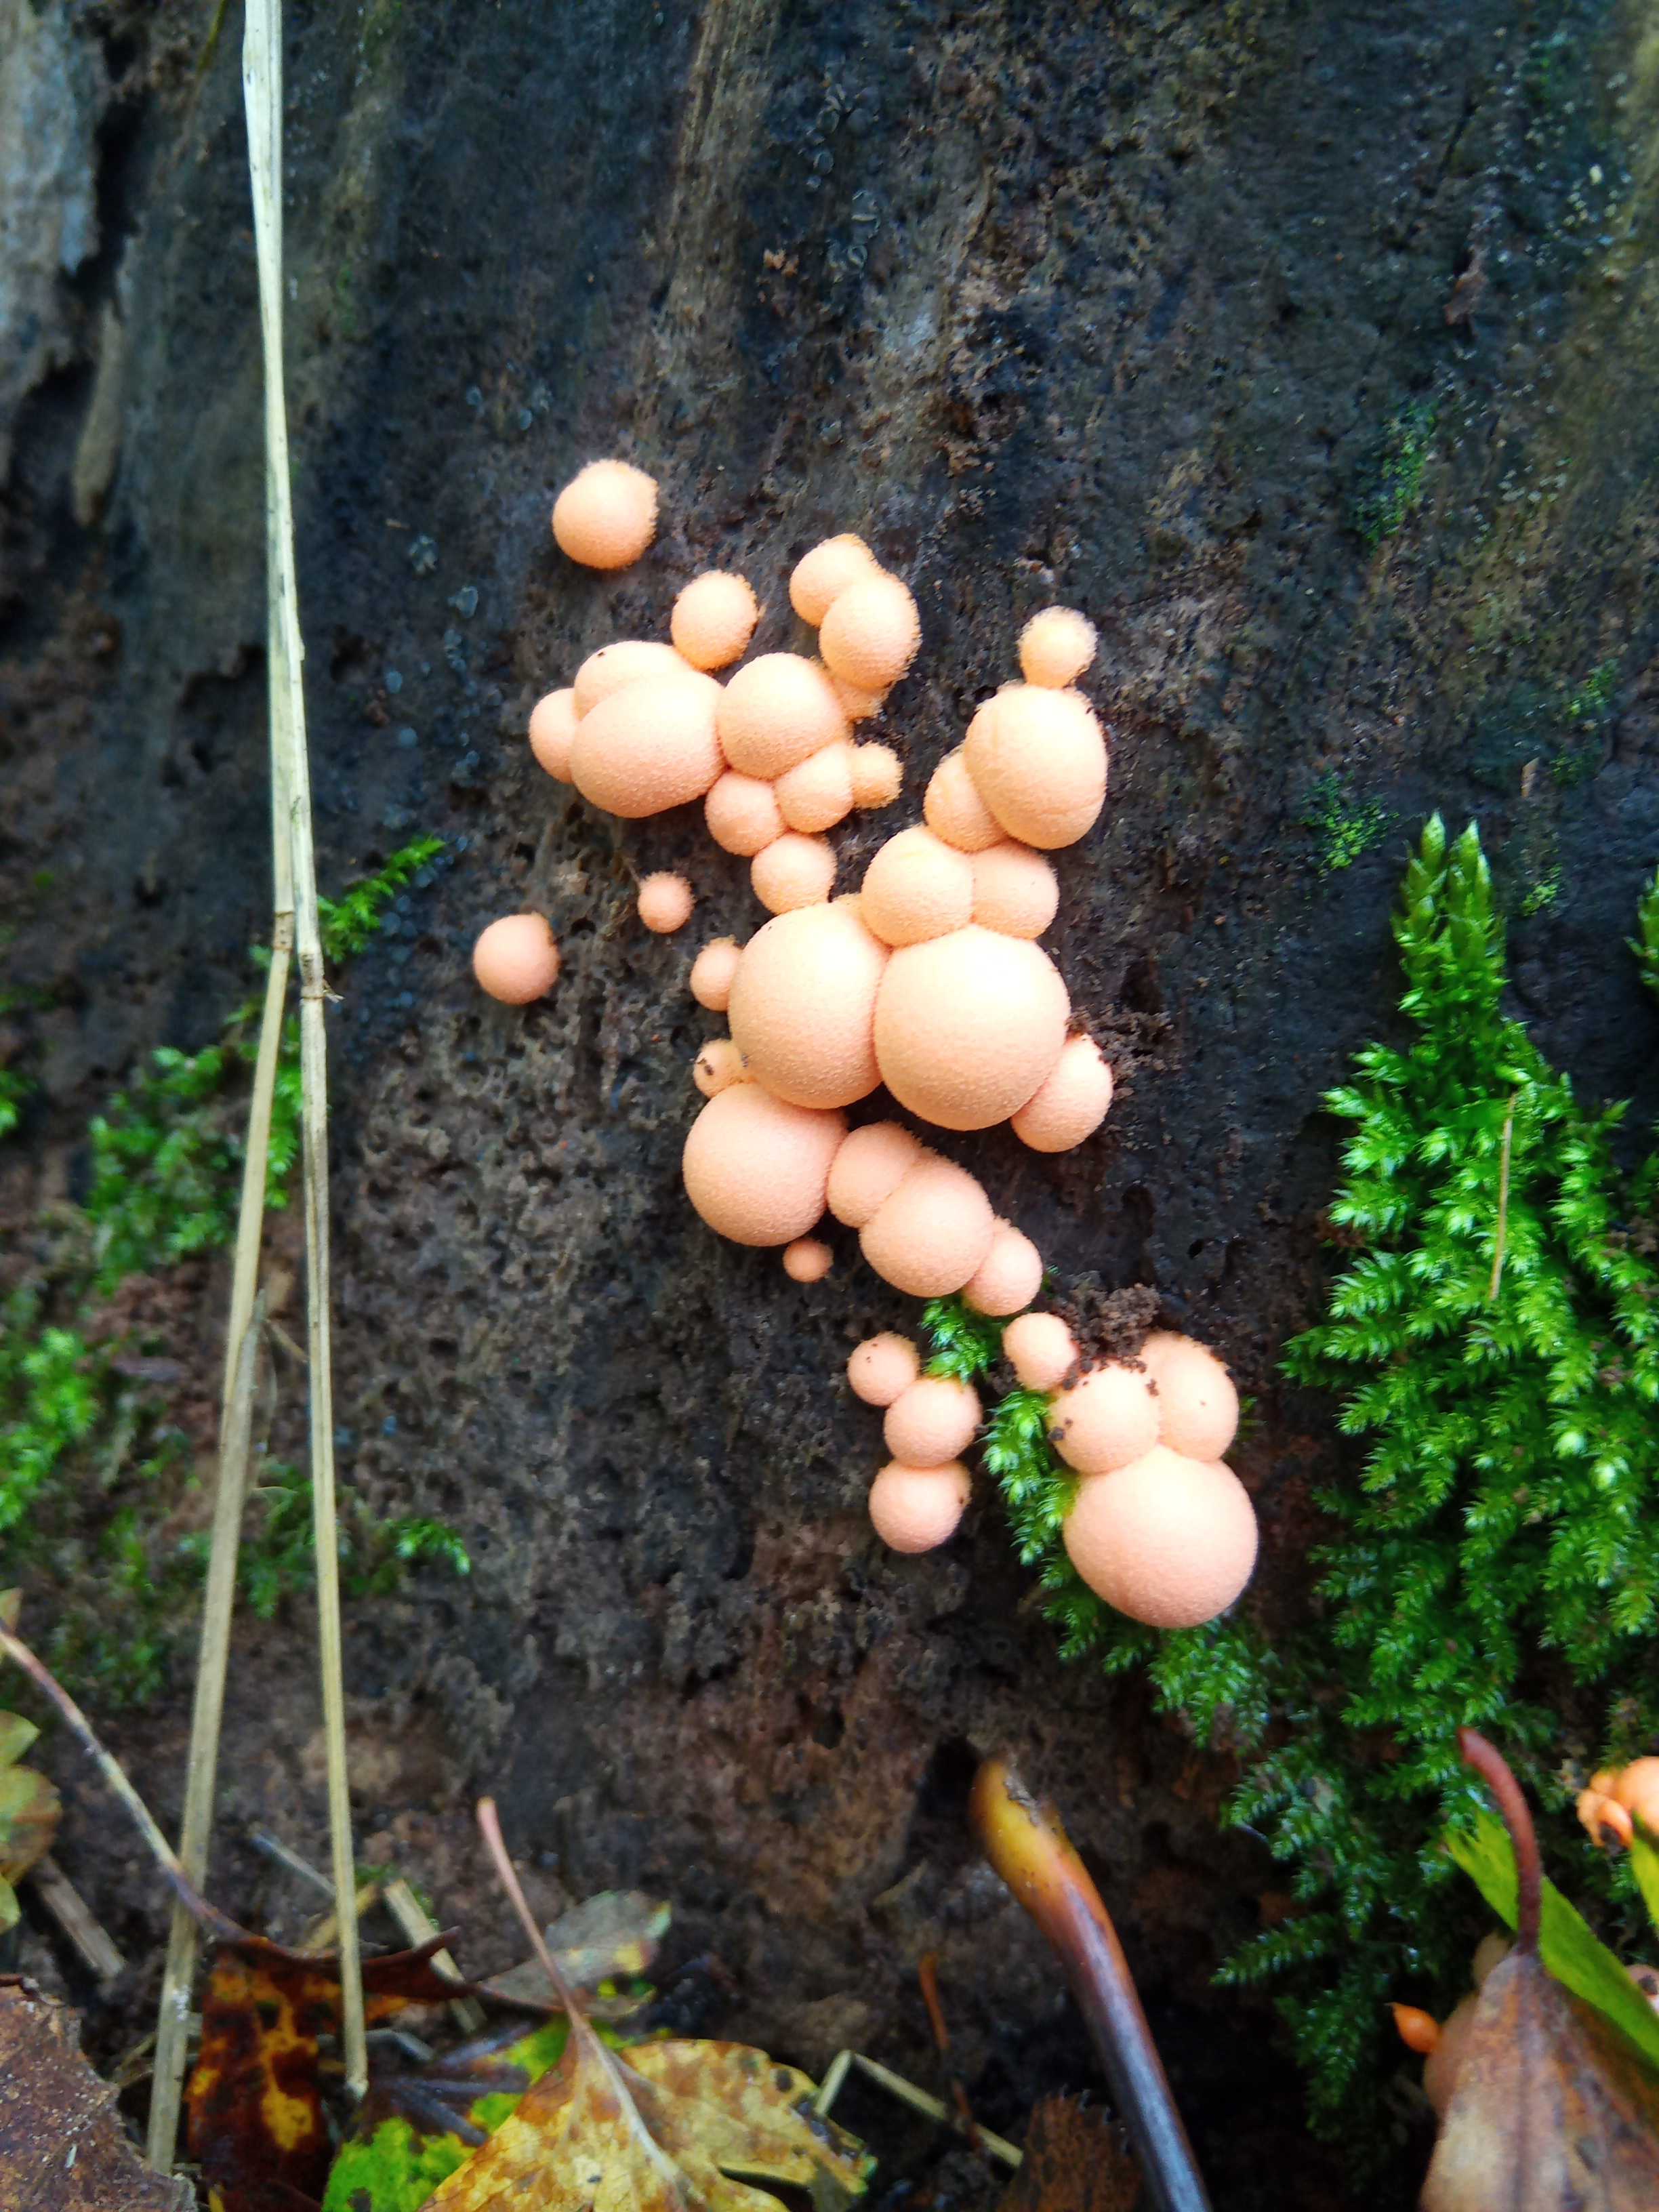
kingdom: Protozoa
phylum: Mycetozoa
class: Myxomycetes
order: Cribrariales
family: Tubiferaceae
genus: Lycogala
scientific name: Lycogala epidendrum
